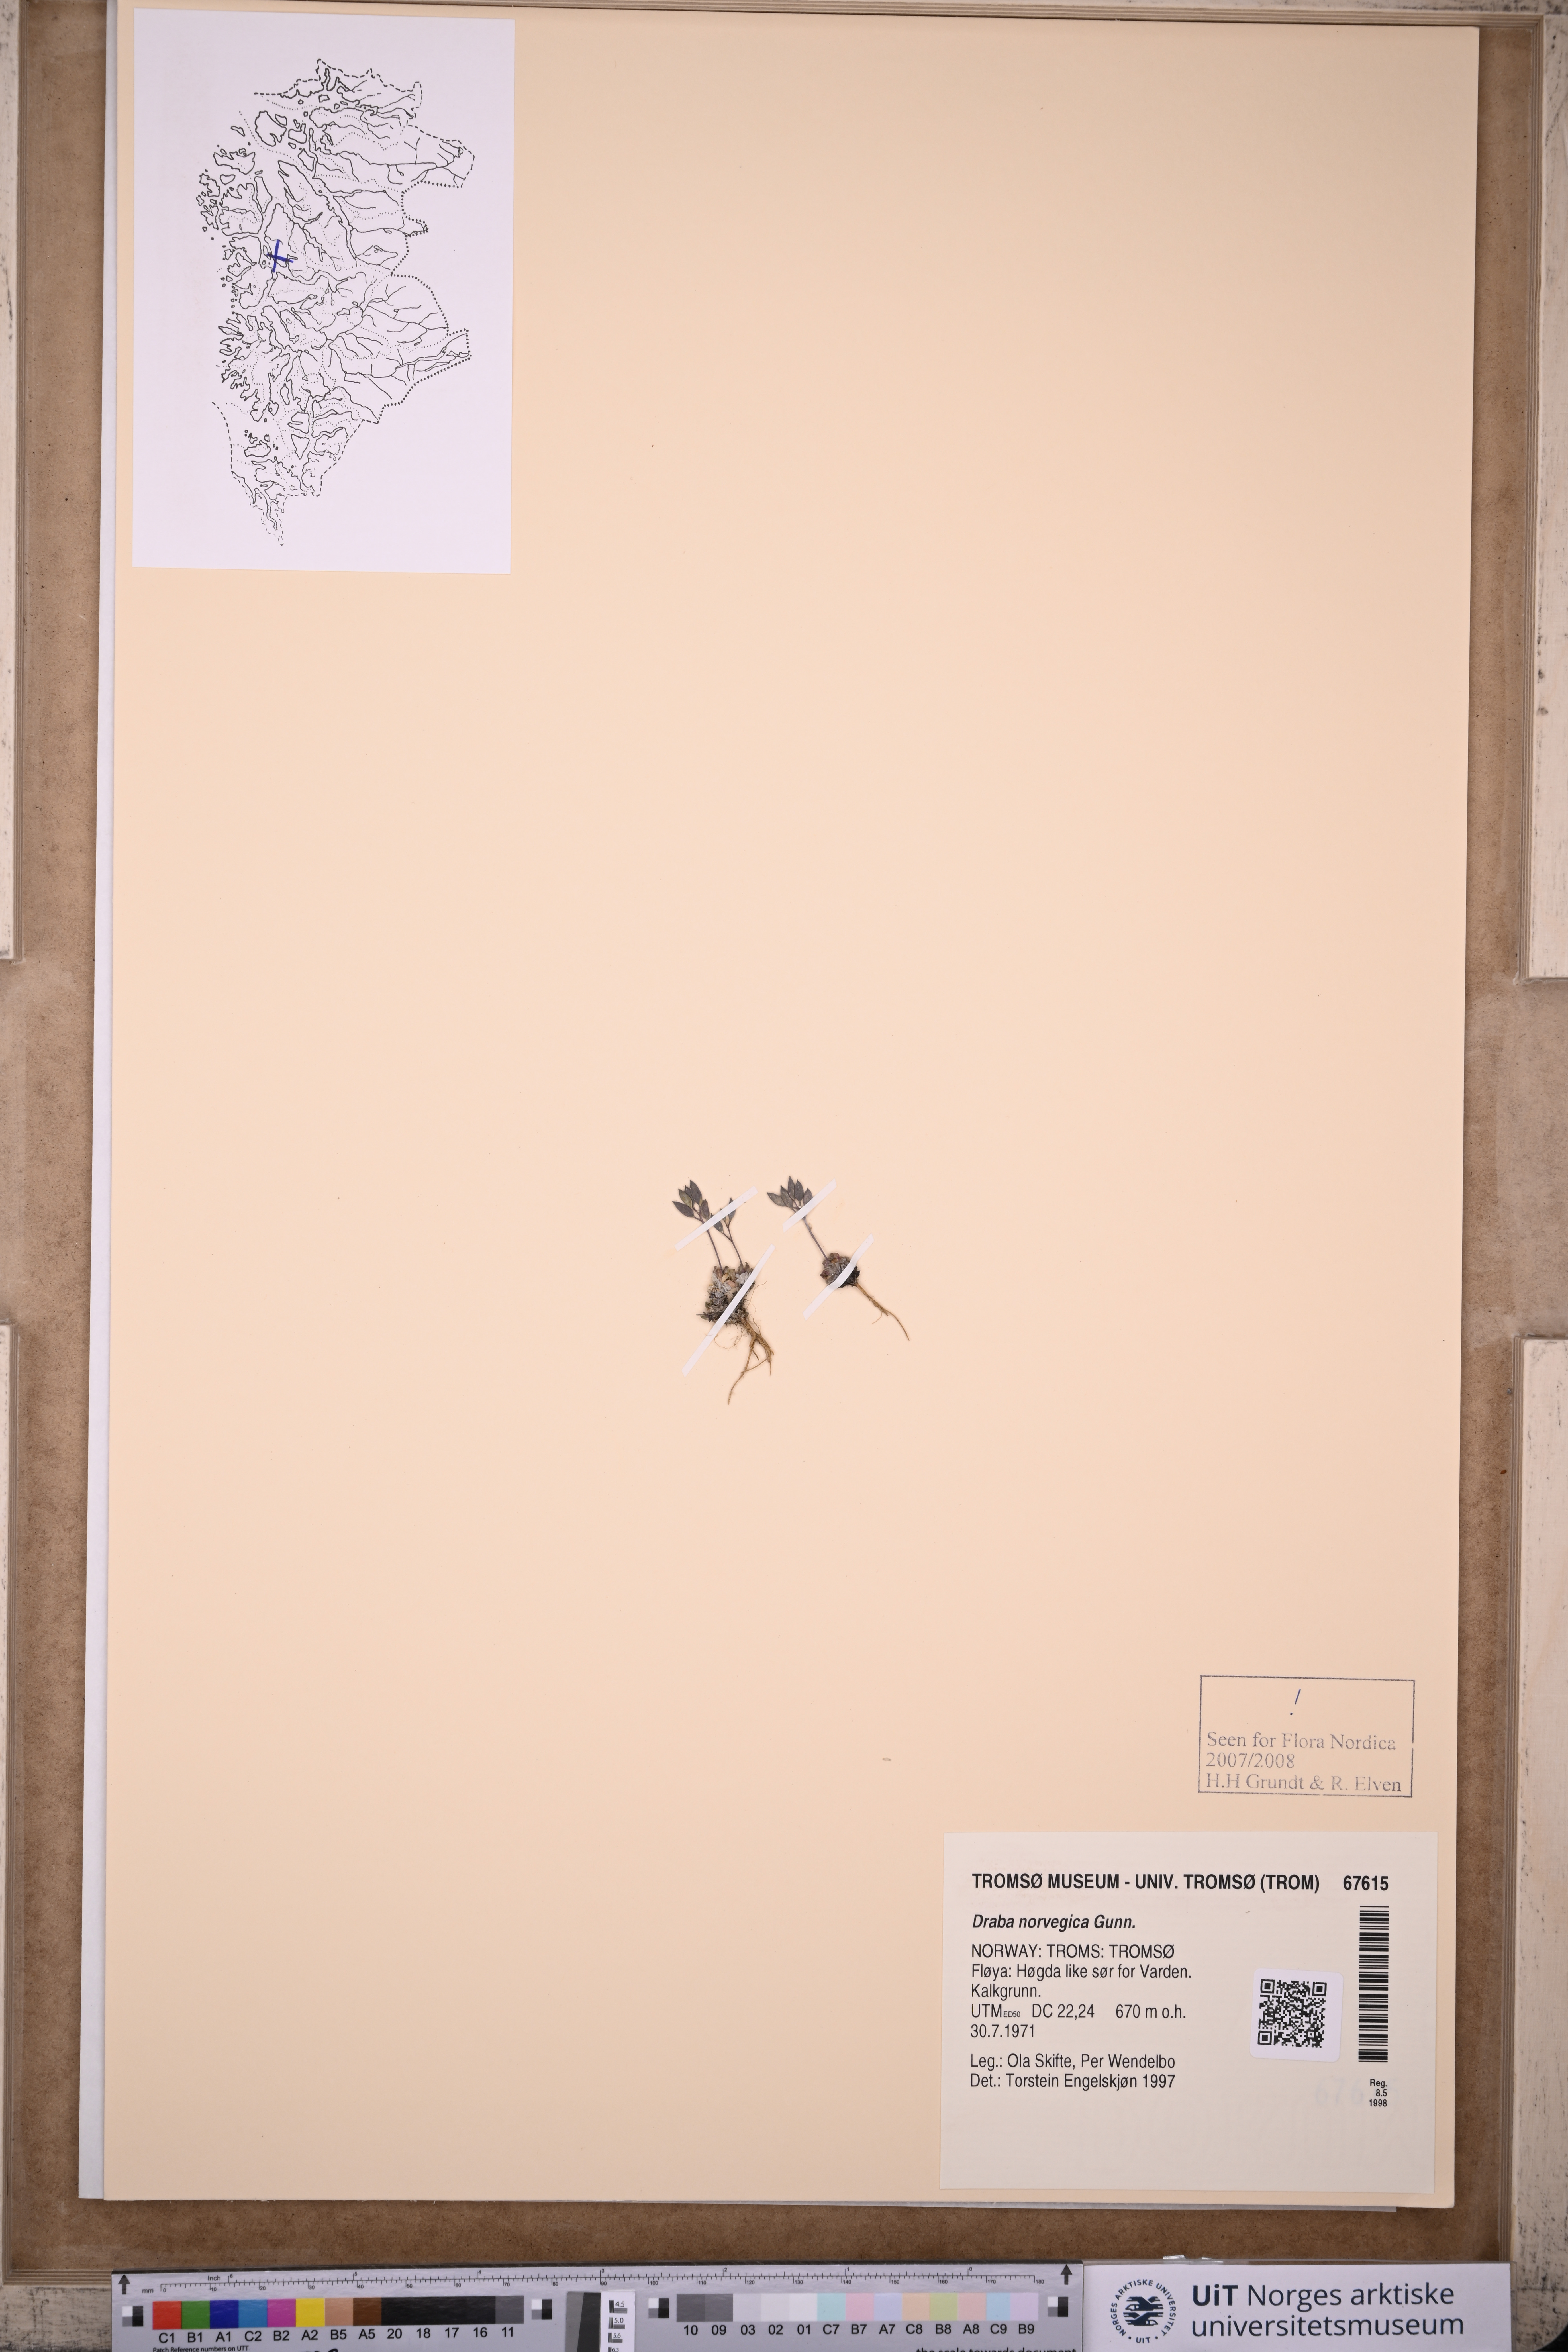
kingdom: Plantae
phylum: Tracheophyta
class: Magnoliopsida
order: Brassicales
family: Brassicaceae
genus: Draba
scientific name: Draba norvegica
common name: Rock whitlowgrass
